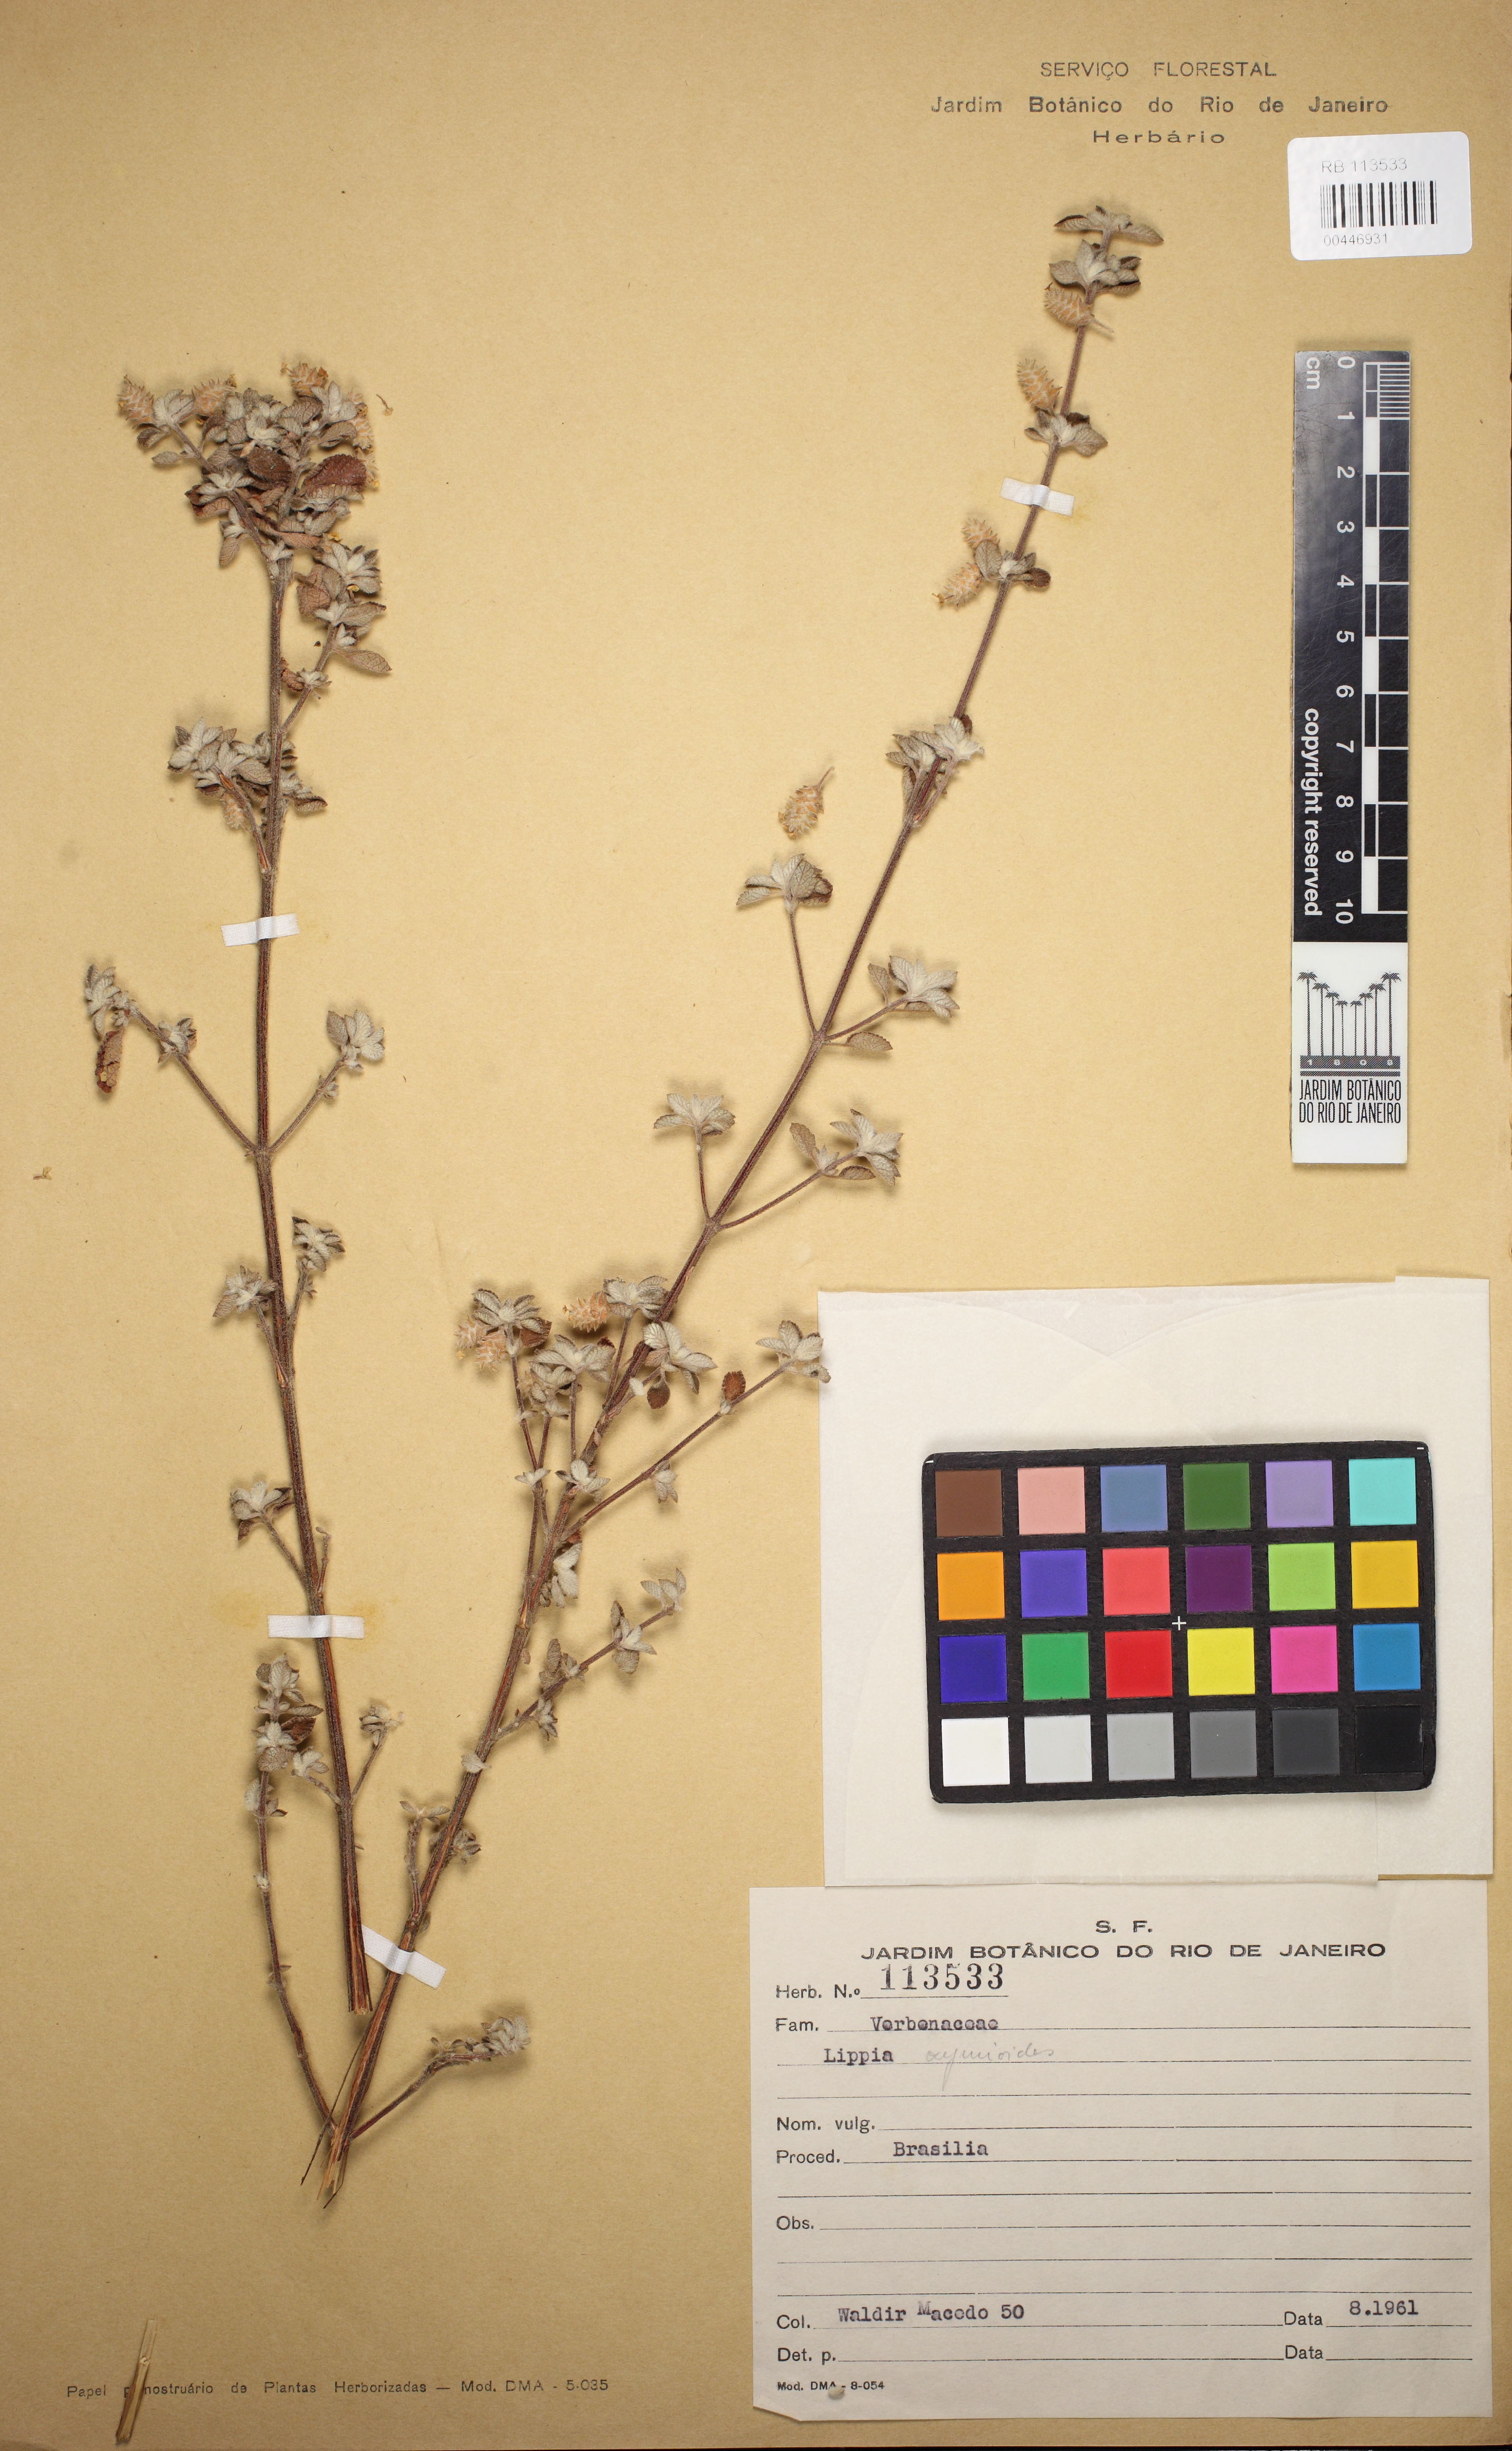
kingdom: Plantae
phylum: Tracheophyta
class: Magnoliopsida
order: Lamiales
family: Verbenaceae
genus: Lippia
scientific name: Lippia origanoides
